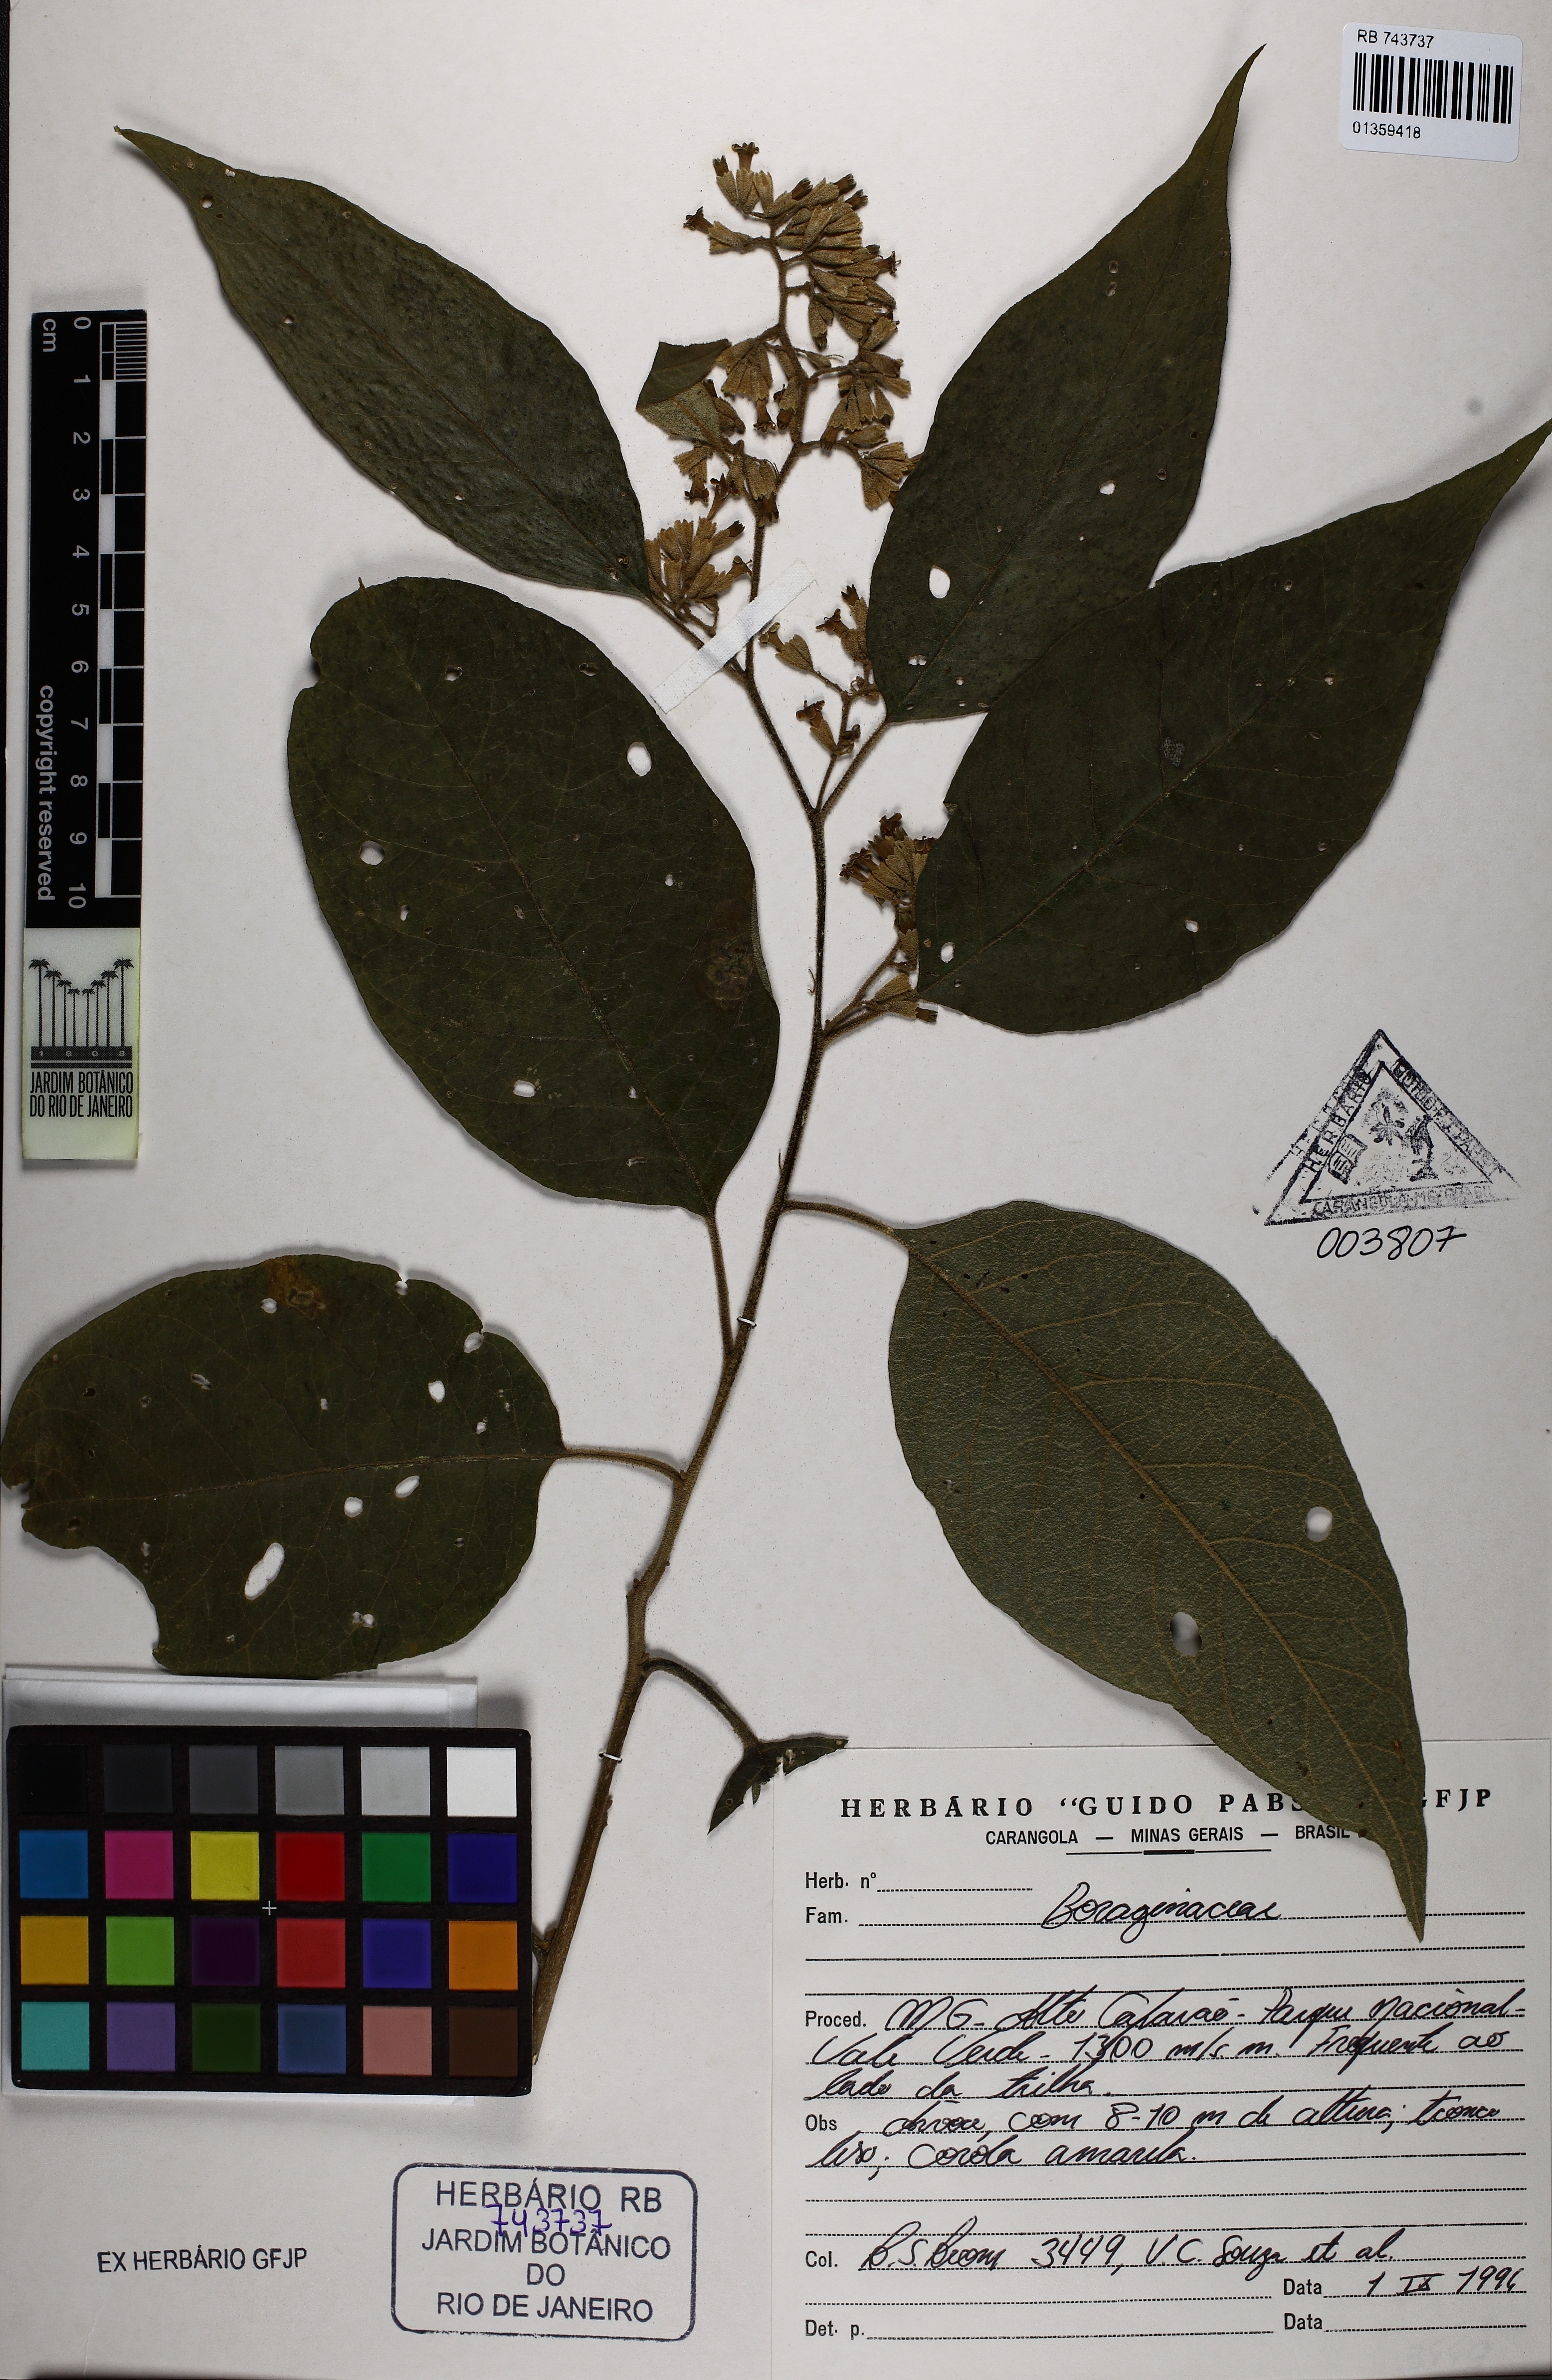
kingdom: Plantae
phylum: Tracheophyta
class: Magnoliopsida
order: Boraginales
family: Boraginaceae
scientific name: Boraginaceae
